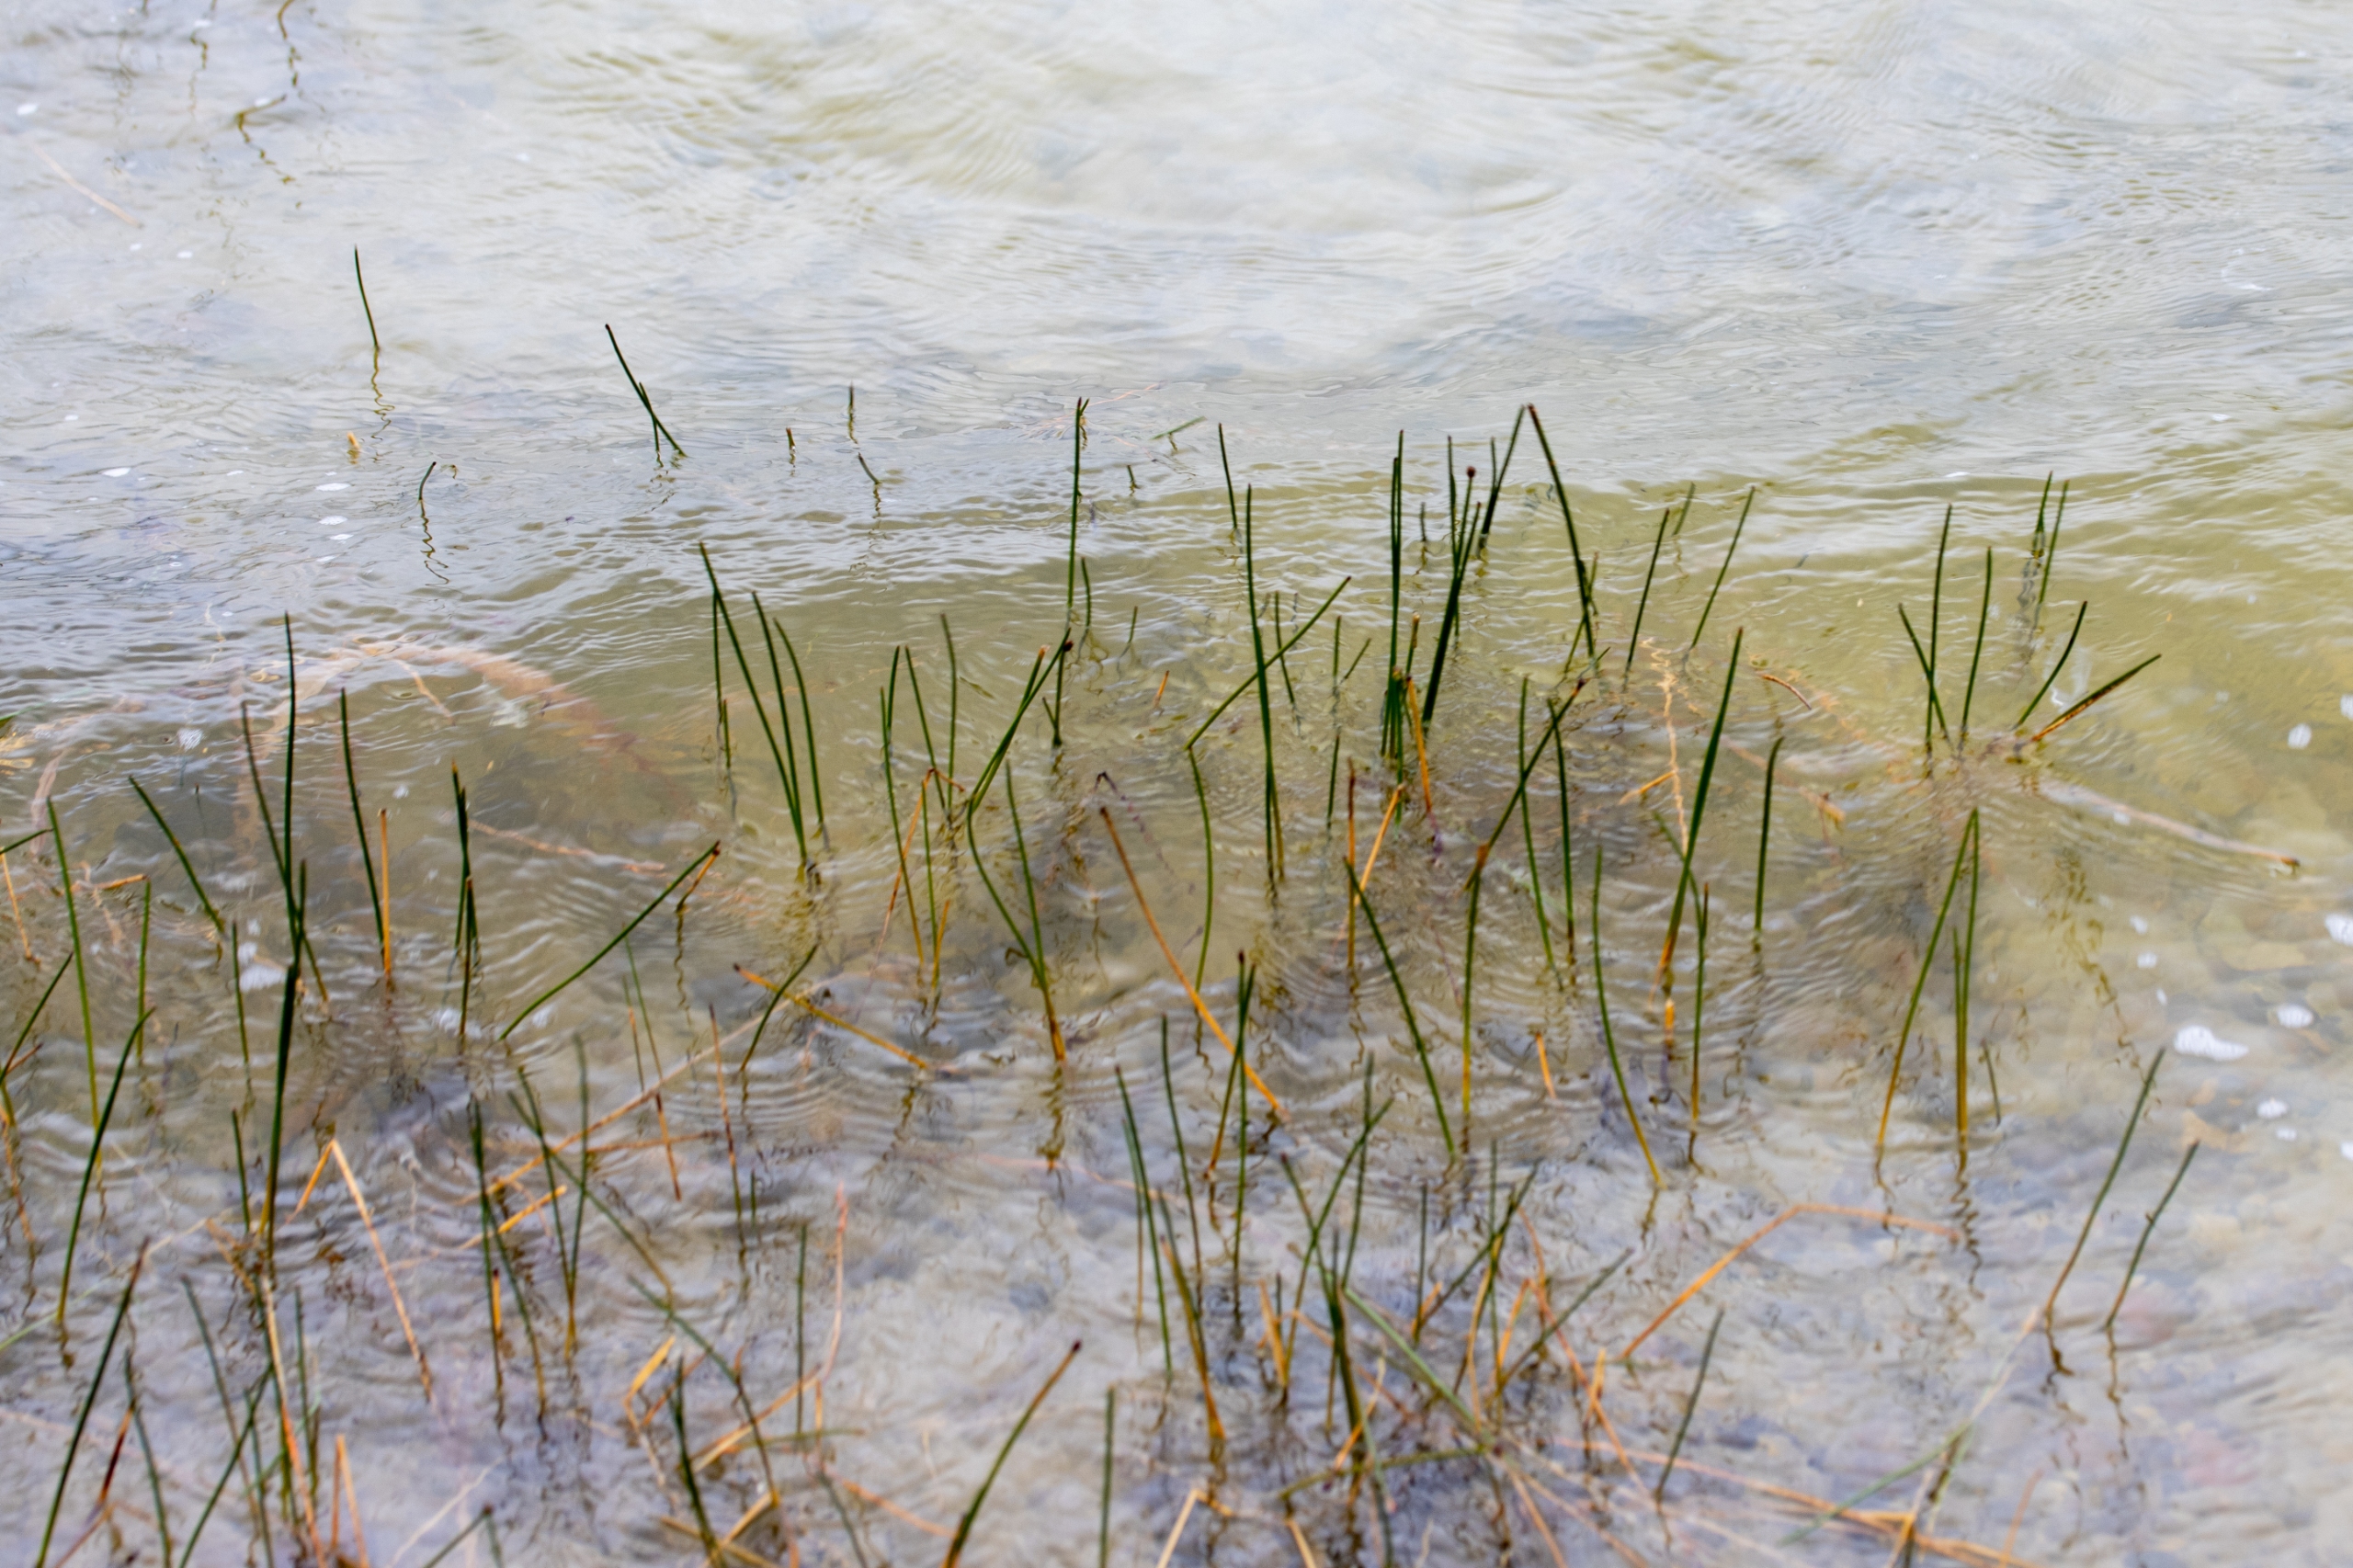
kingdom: Plantae
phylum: Tracheophyta
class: Liliopsida
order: Poales
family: Cyperaceae
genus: Eleocharis
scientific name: Eleocharis palustris
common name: Almindelig sumpstrå
